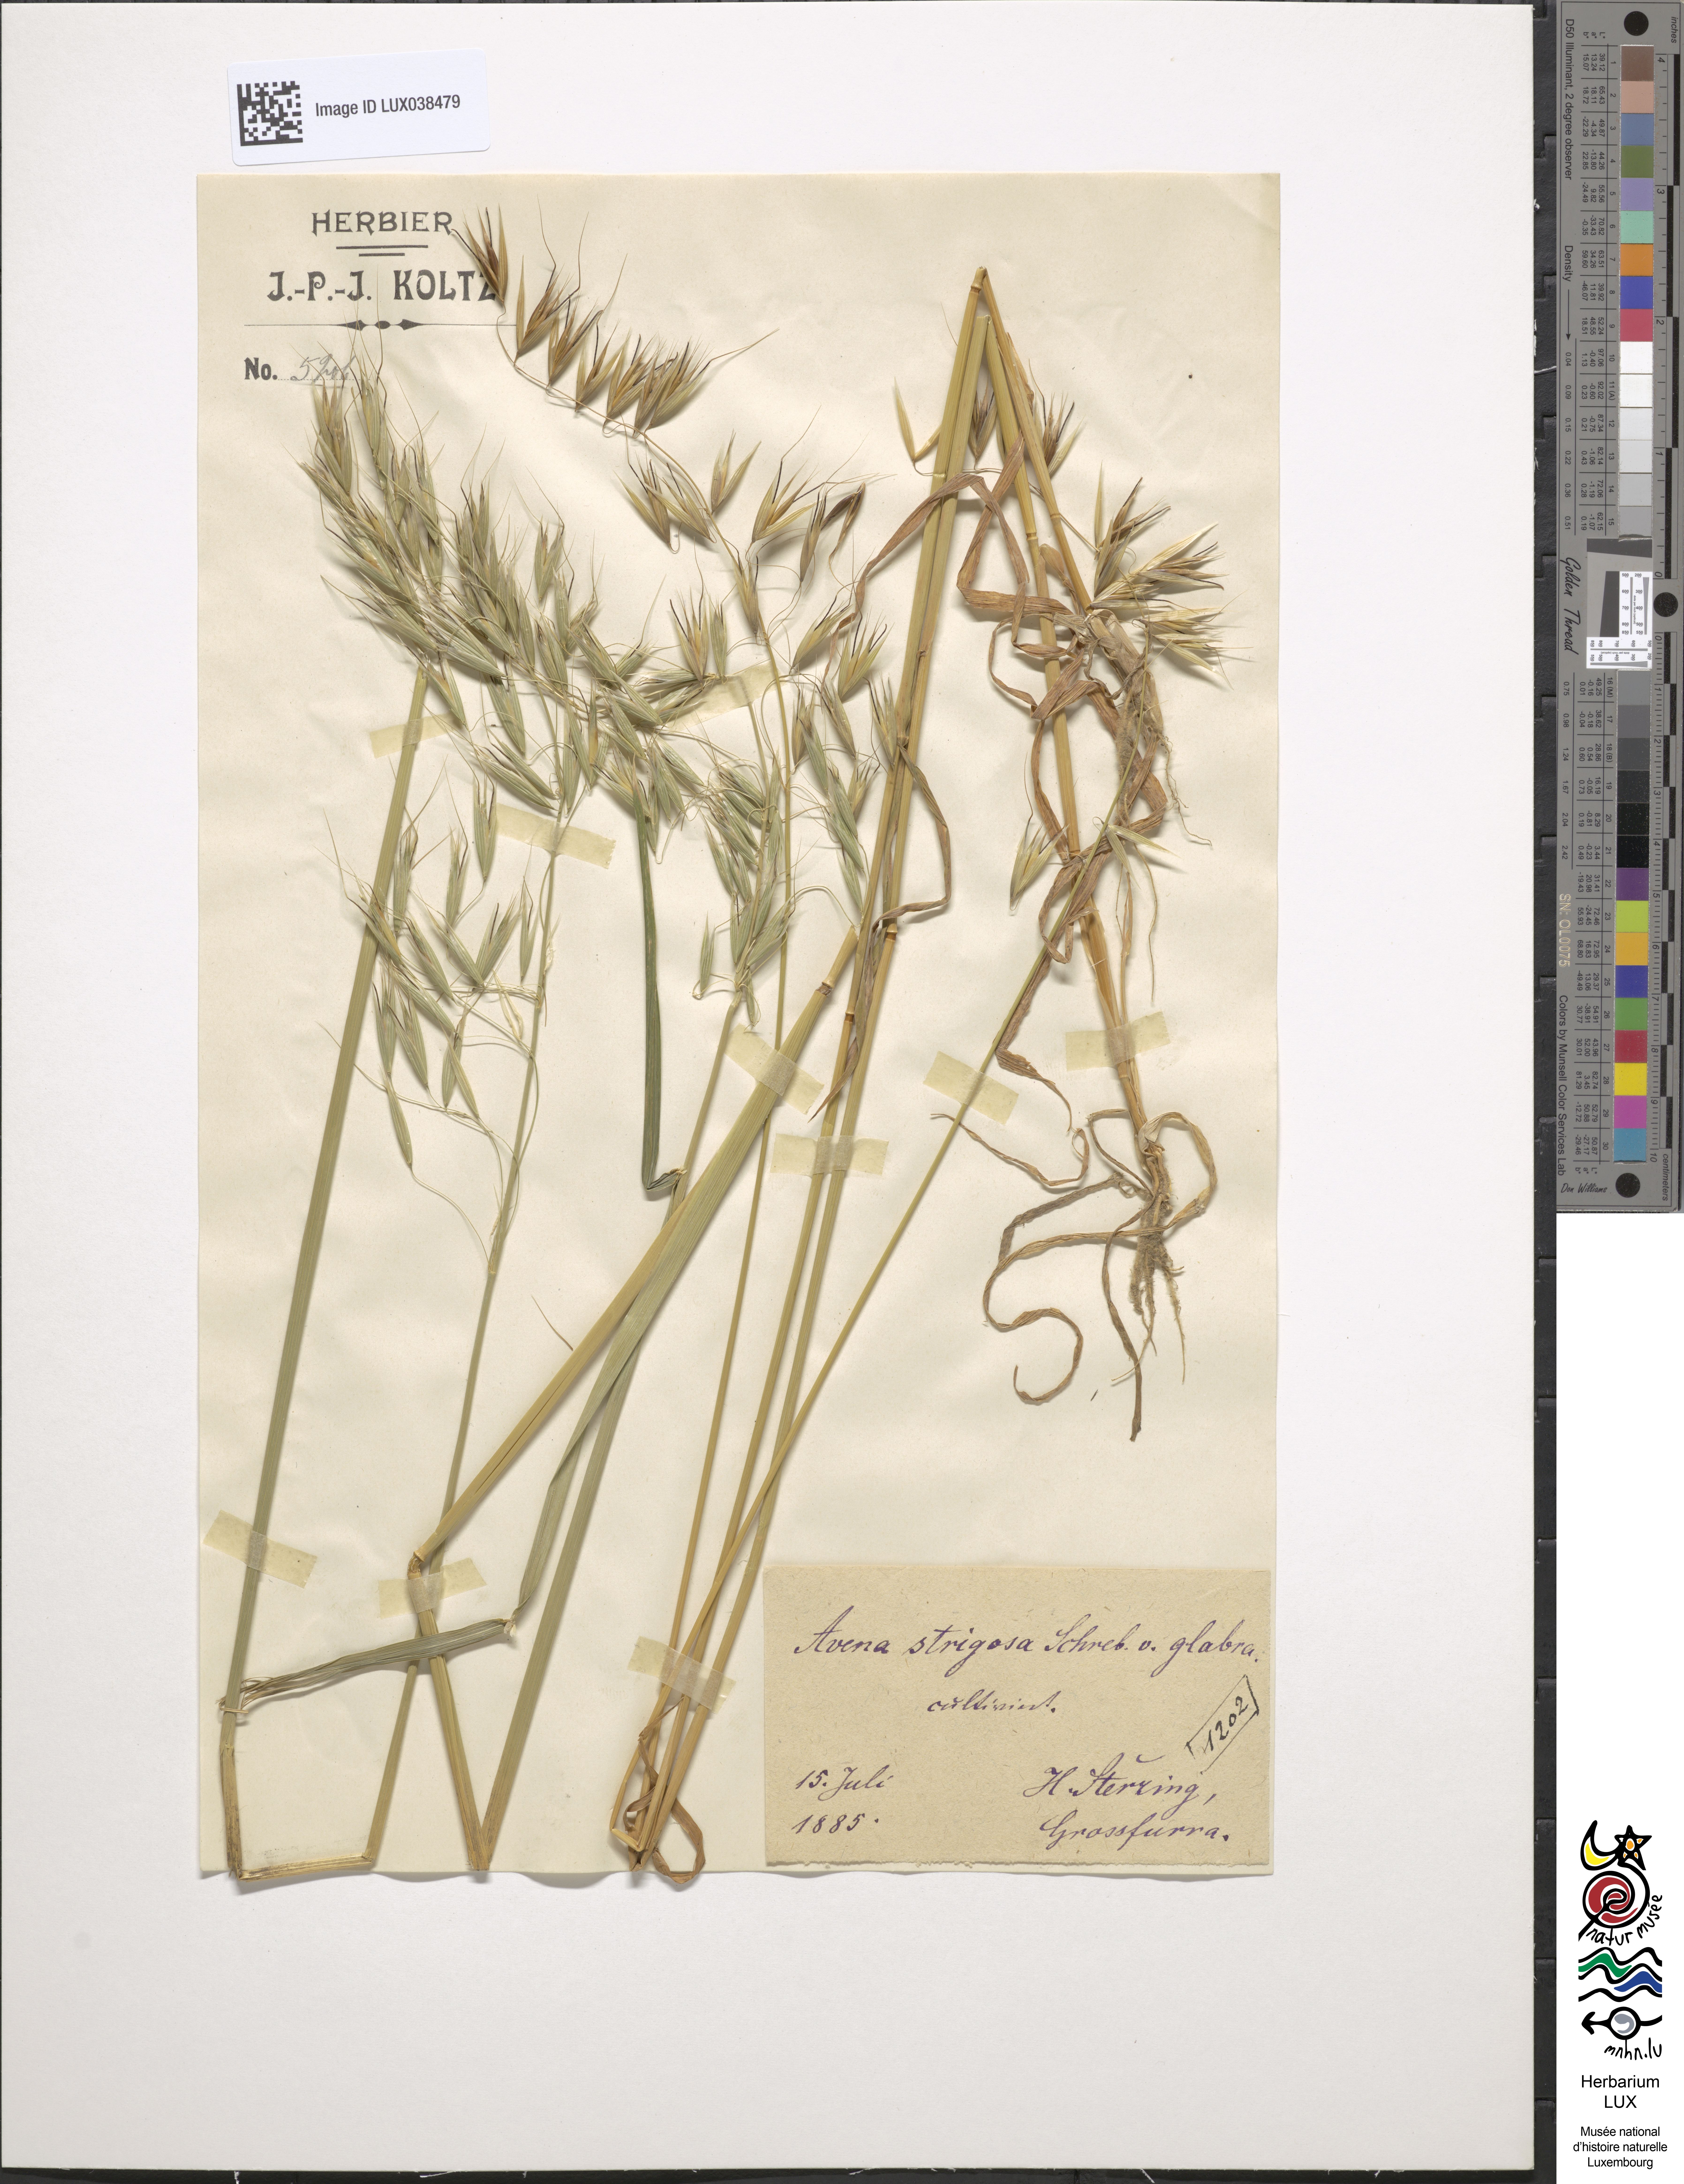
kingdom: Plantae
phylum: Tracheophyta
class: Liliopsida
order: Poales
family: Poaceae
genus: Avena
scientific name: Avena vaviloviana
